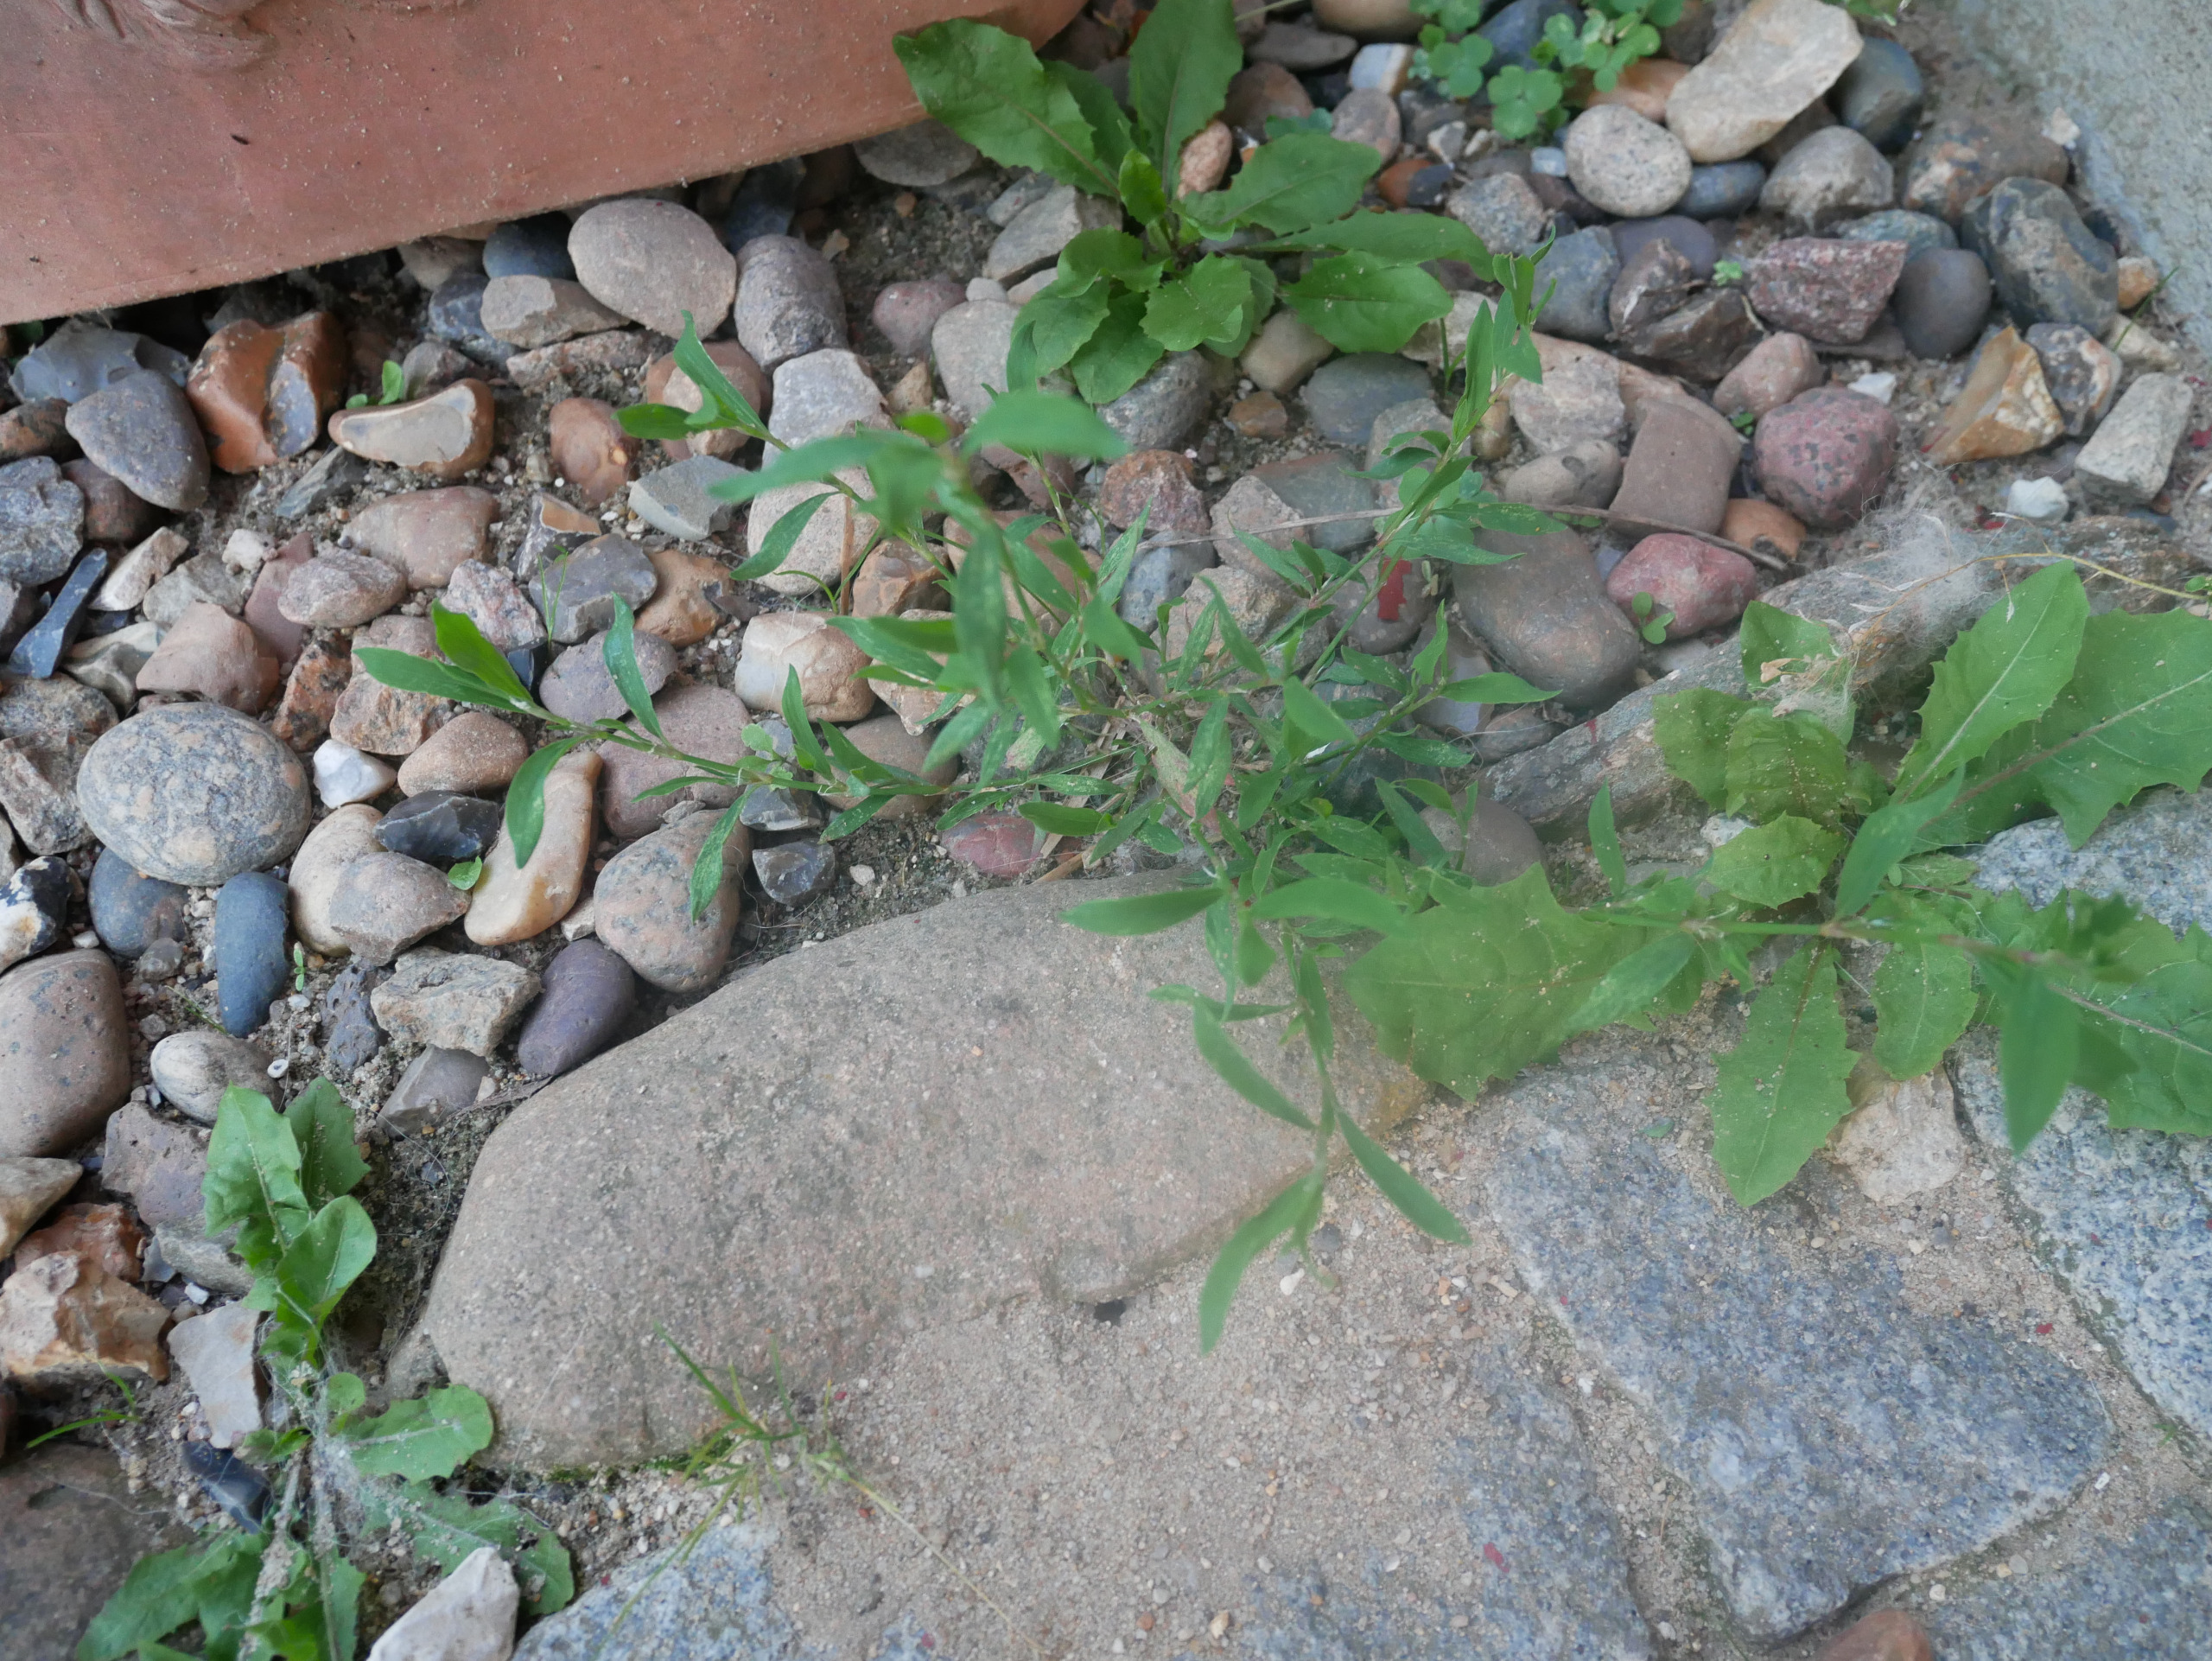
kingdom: Plantae
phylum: Tracheophyta
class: Magnoliopsida
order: Caryophyllales
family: Polygonaceae
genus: Polygonum
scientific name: Polygonum aviculare
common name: Vej-pileurt
